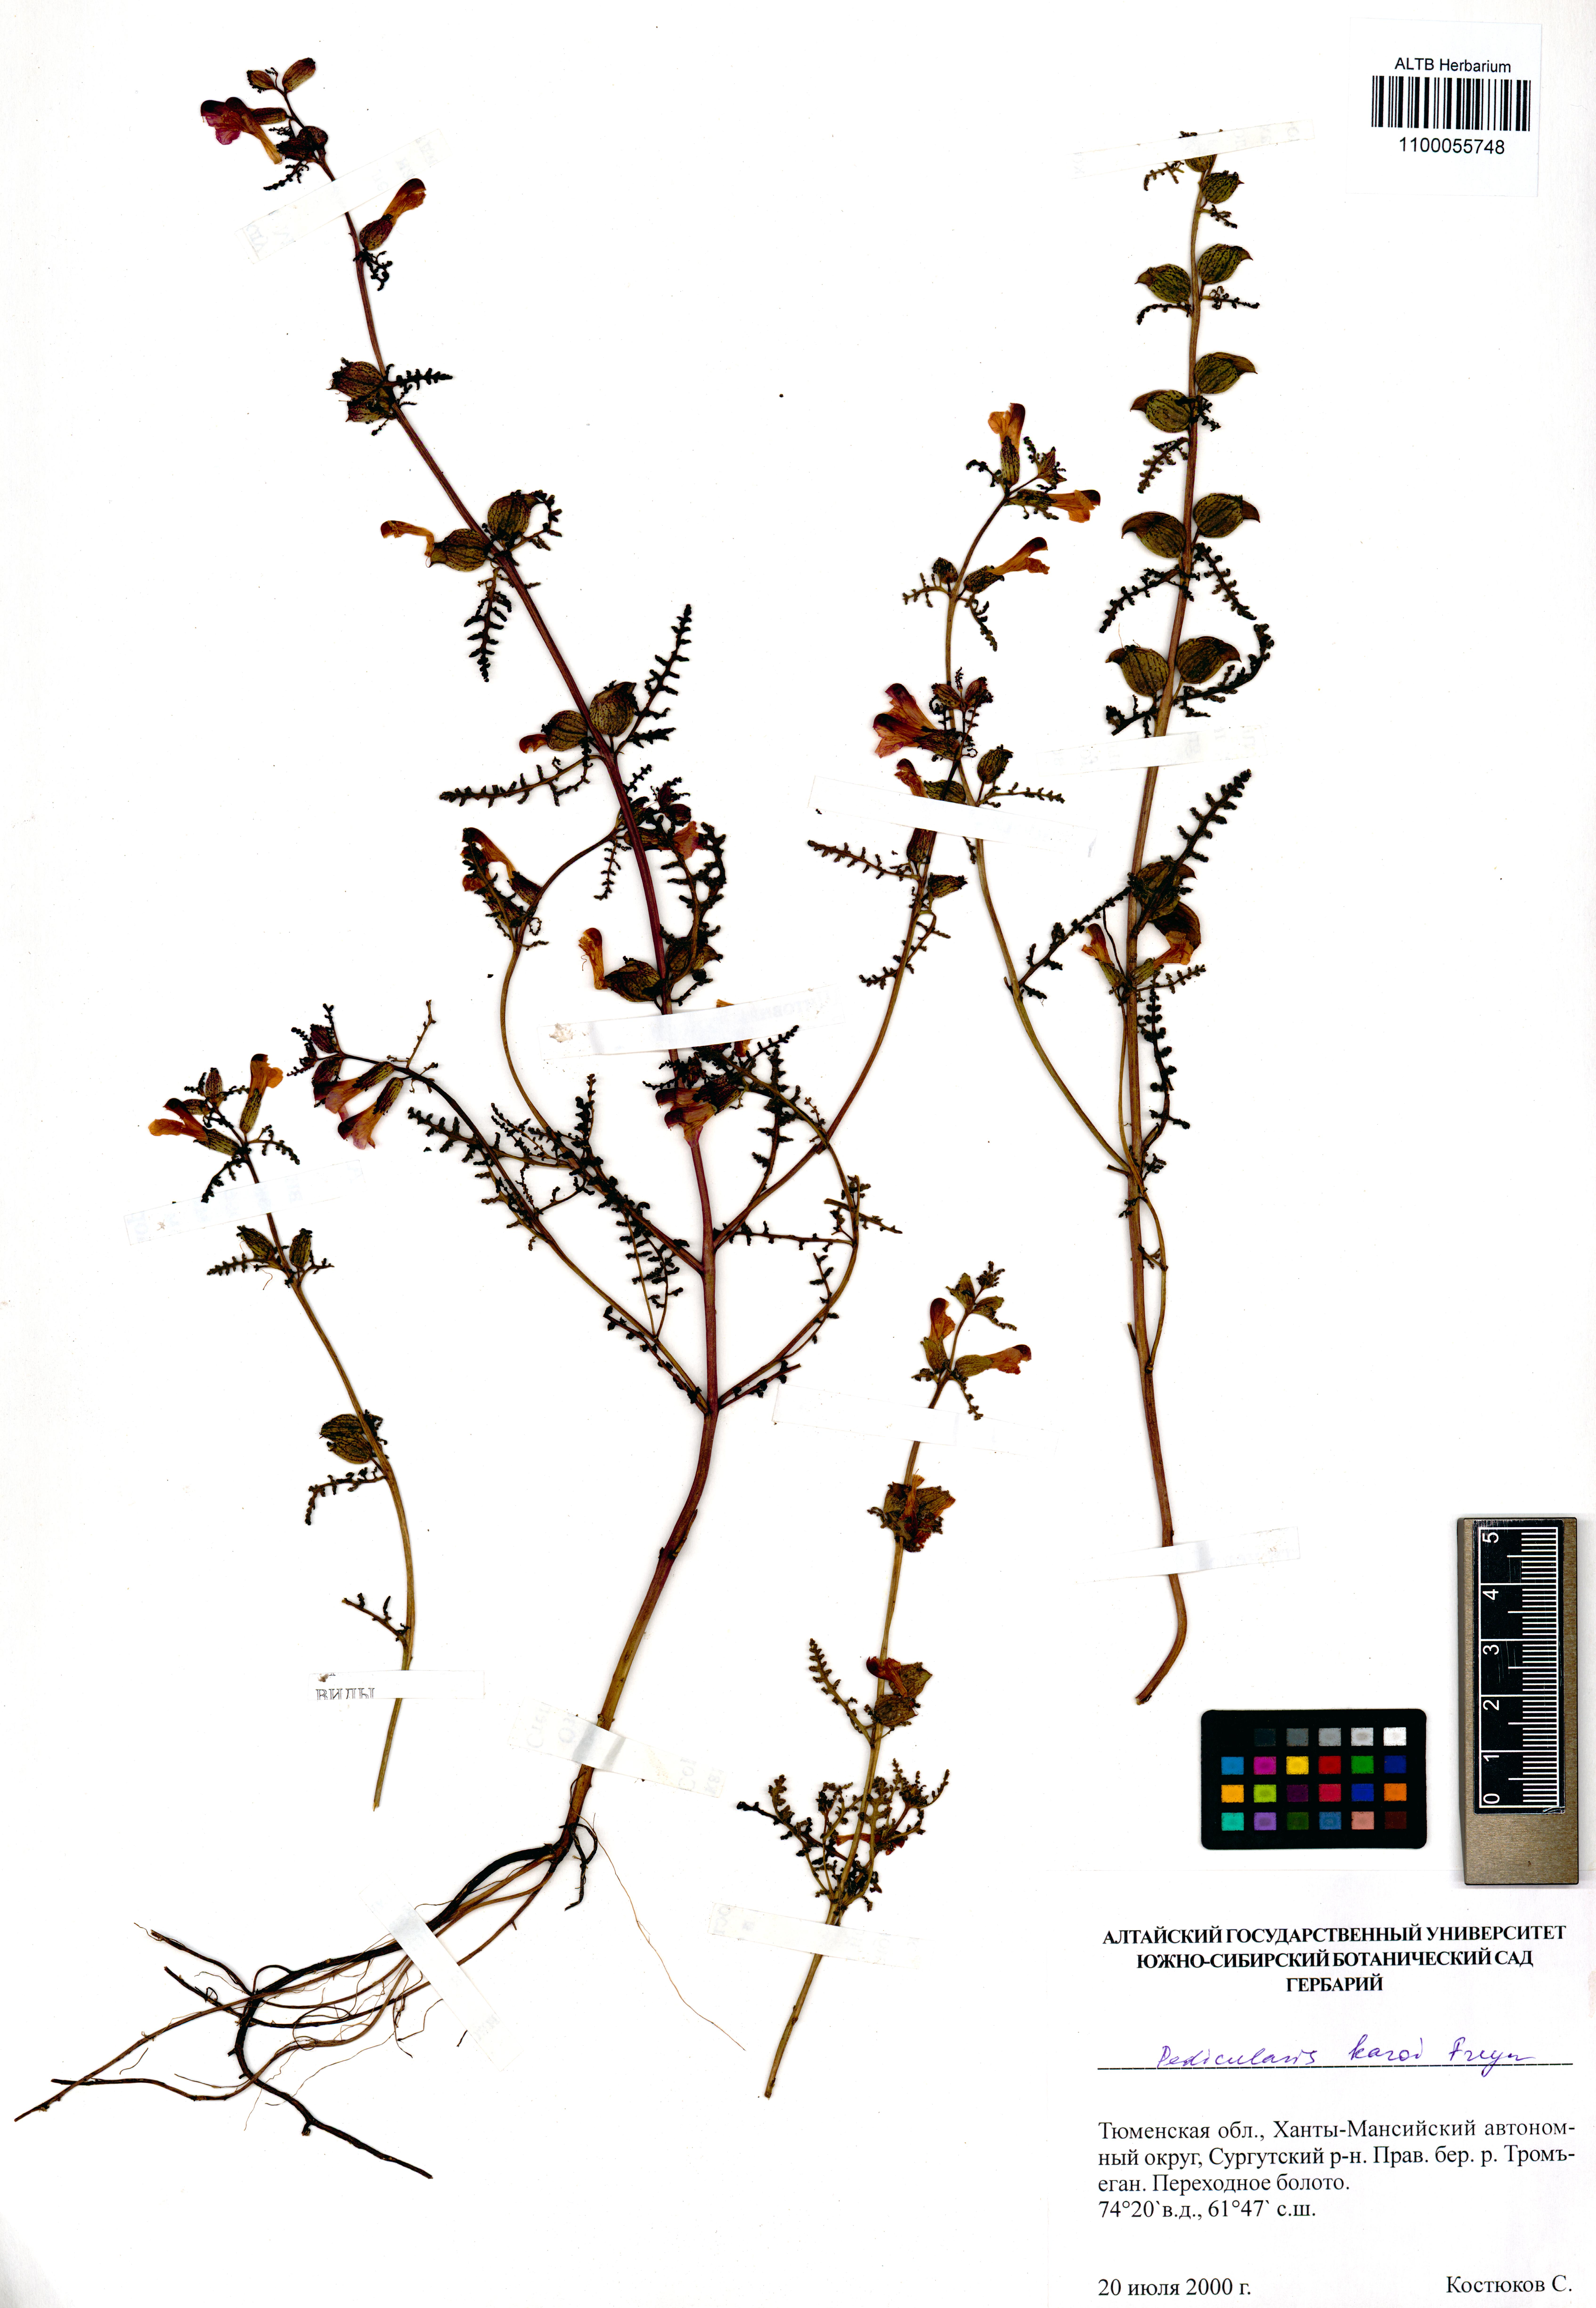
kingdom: Plantae
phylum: Tracheophyta
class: Magnoliopsida
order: Lamiales
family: Orobanchaceae
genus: Pedicularis
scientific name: Pedicularis karoi
